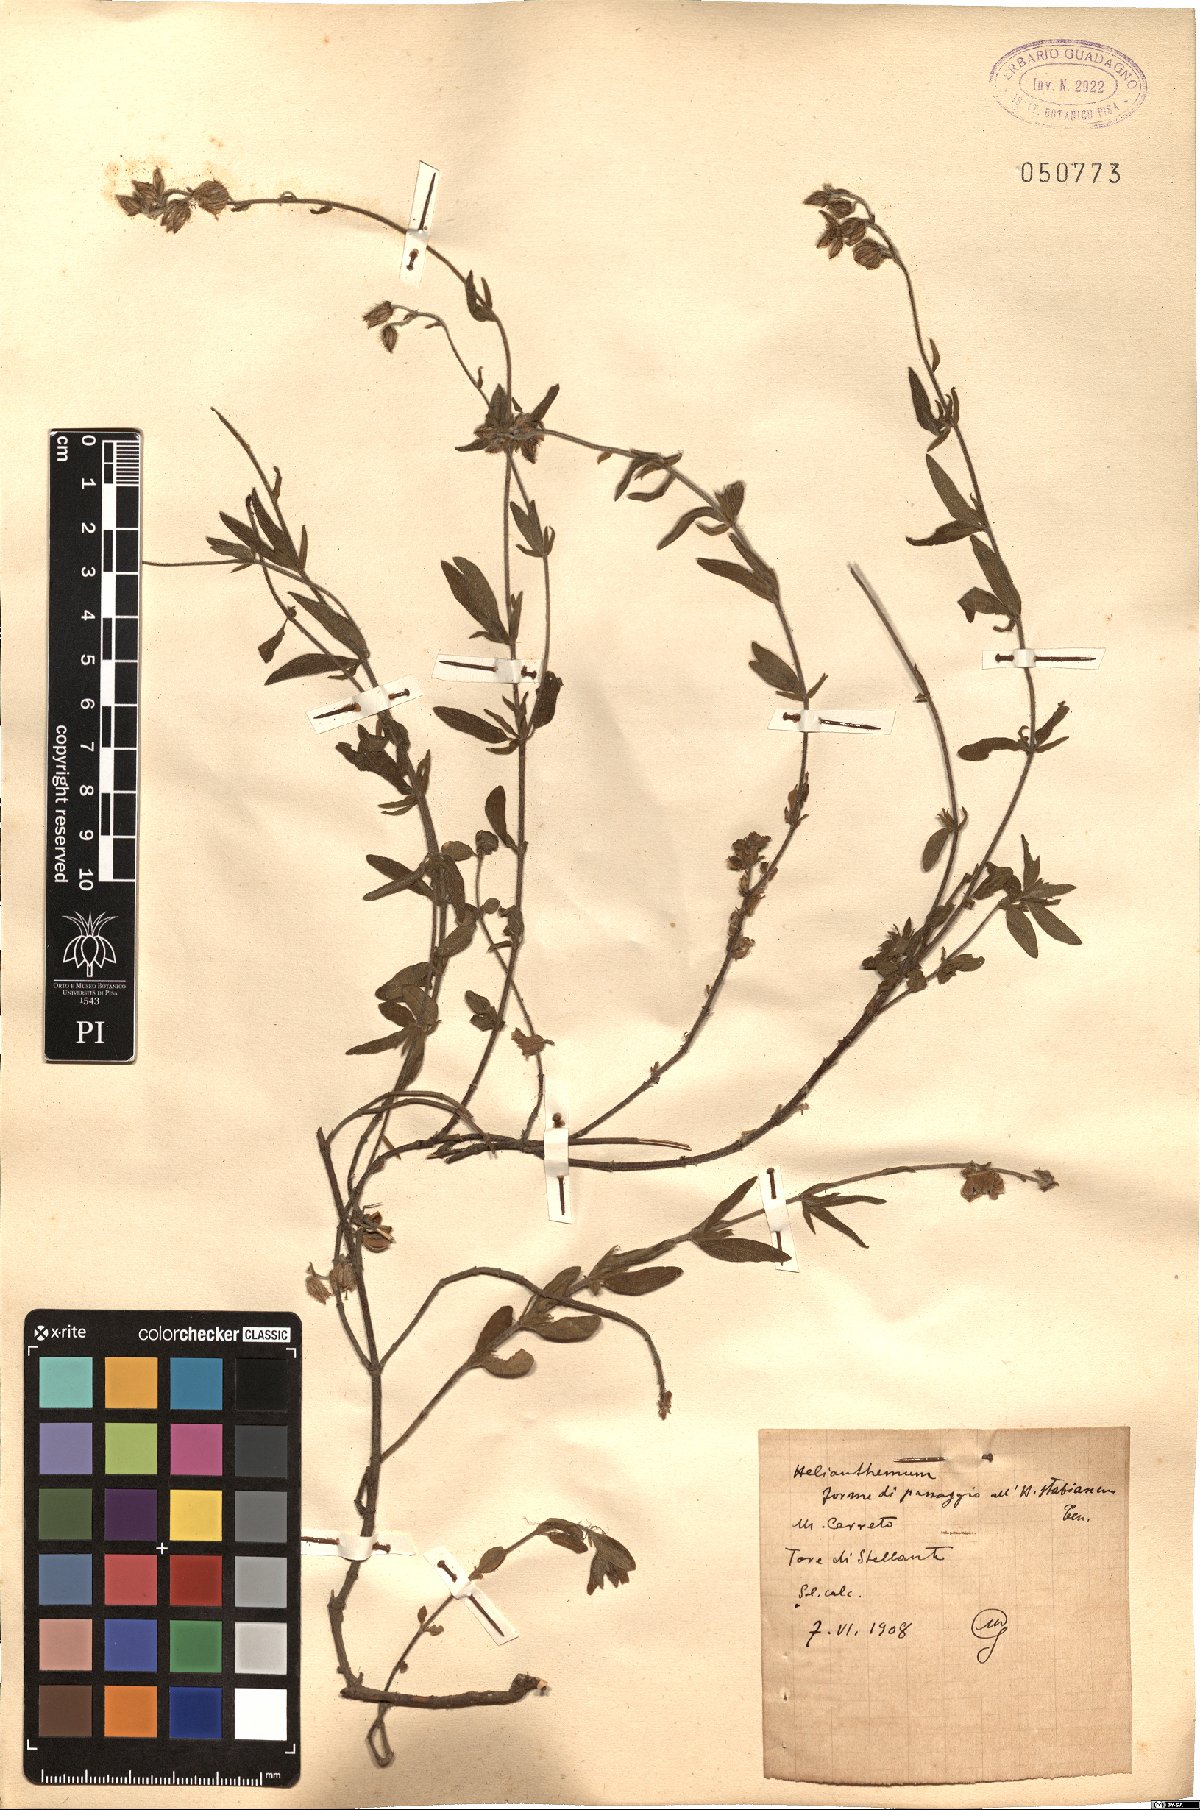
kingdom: Plantae
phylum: Tracheophyta
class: Magnoliopsida
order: Malvales
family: Cistaceae
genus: Helianthemum
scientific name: Helianthemum croceum
